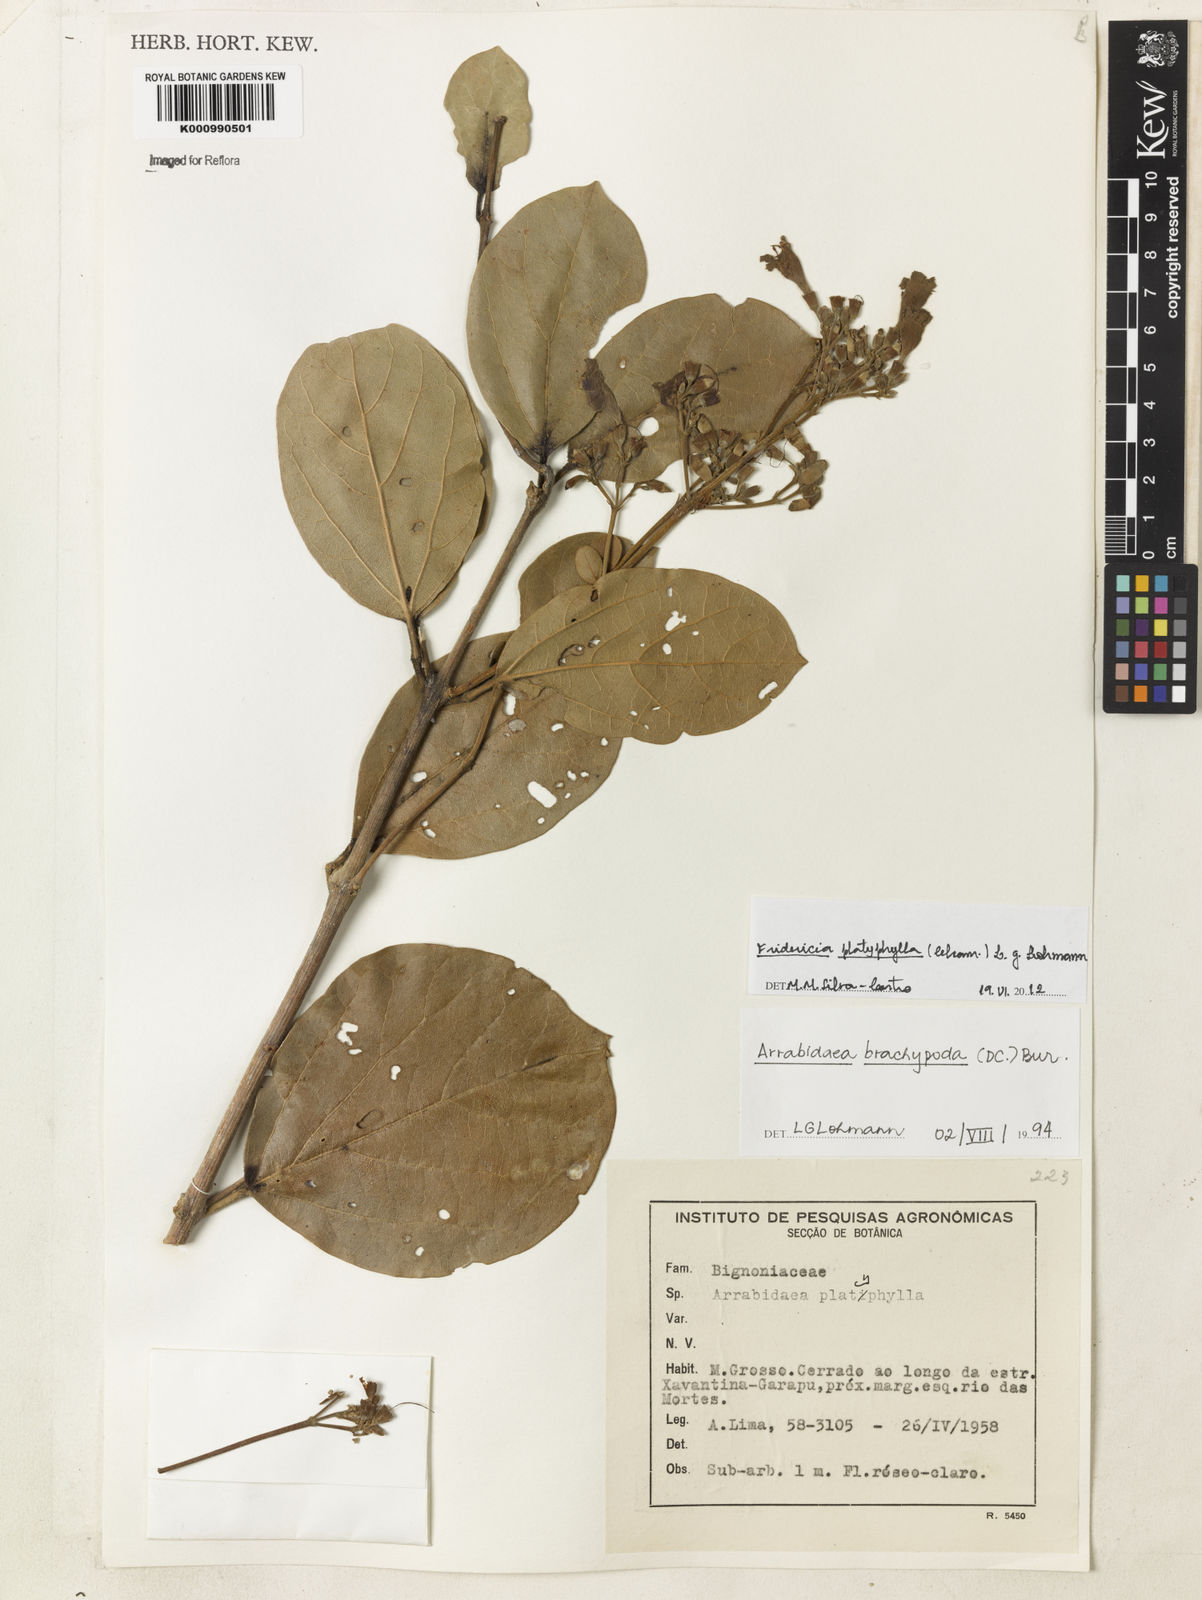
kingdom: Plantae
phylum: Tracheophyta
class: Magnoliopsida
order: Lamiales
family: Bignoniaceae
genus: Fridericia
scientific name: Fridericia platyphylla
